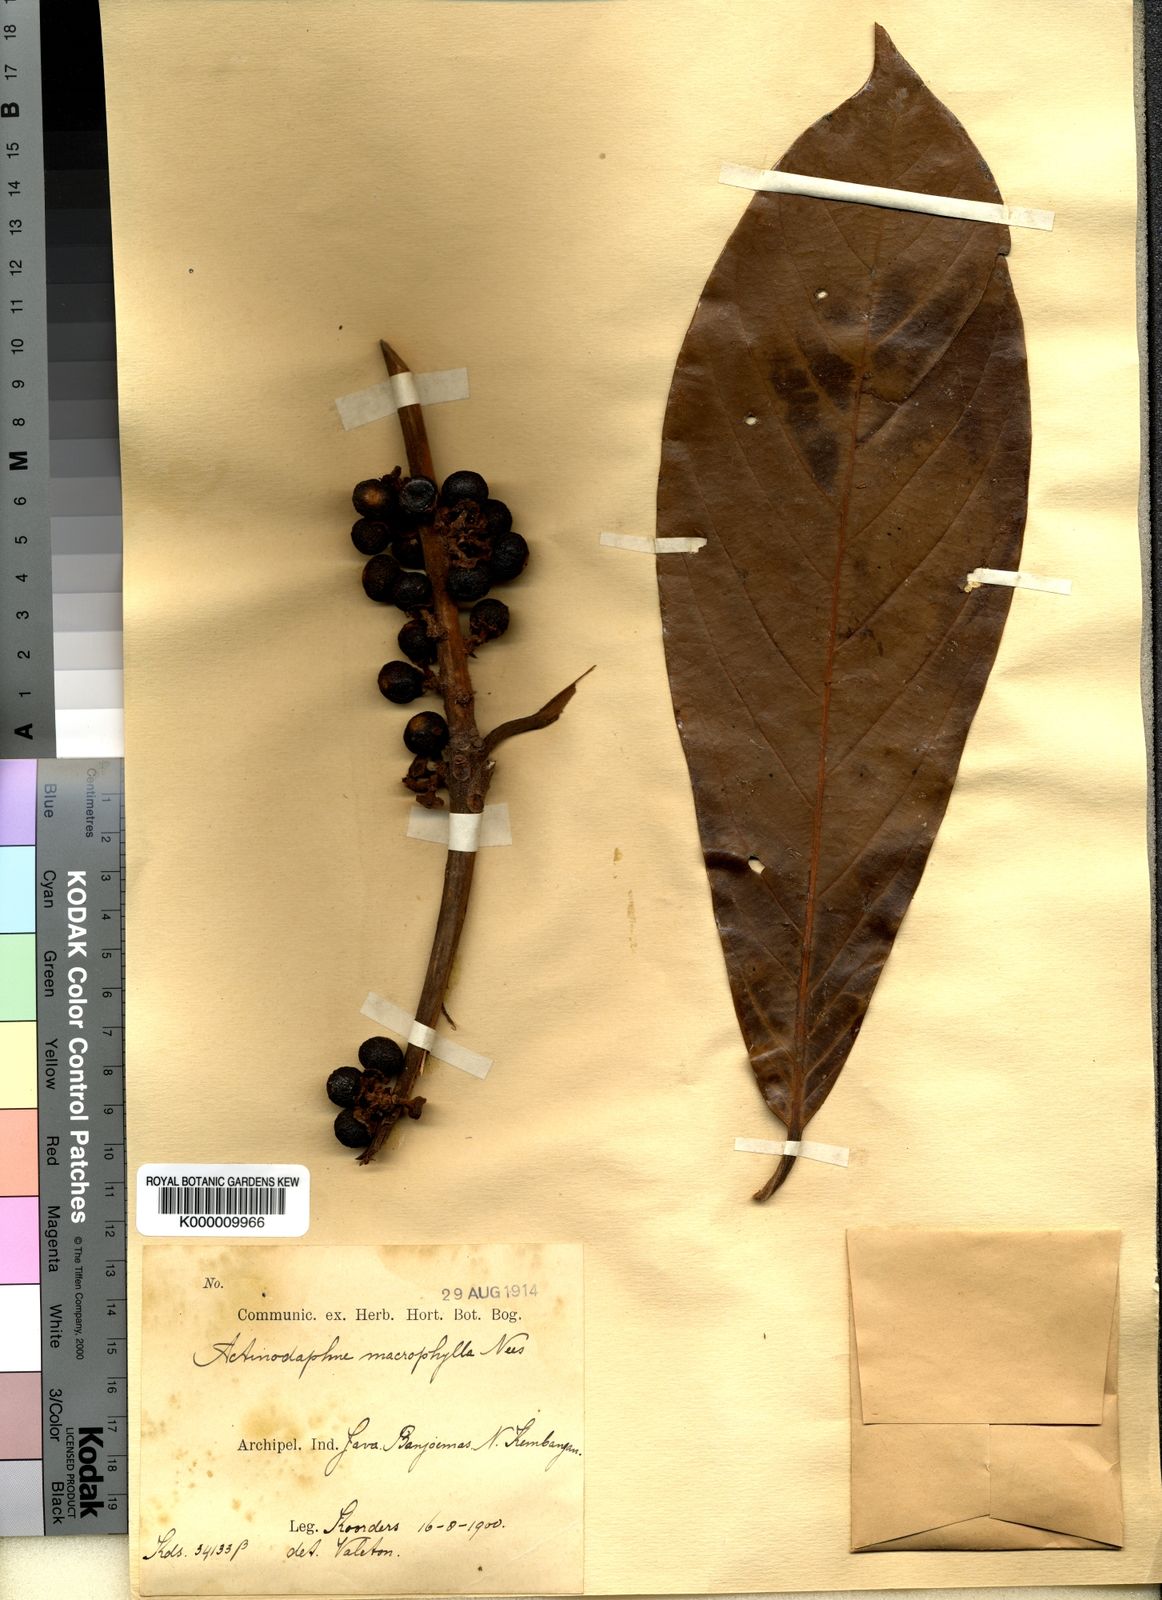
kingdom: Plantae
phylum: Tracheophyta
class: Magnoliopsida
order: Laurales
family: Lauraceae
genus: Actinodaphne
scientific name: Actinodaphne macrophylla
